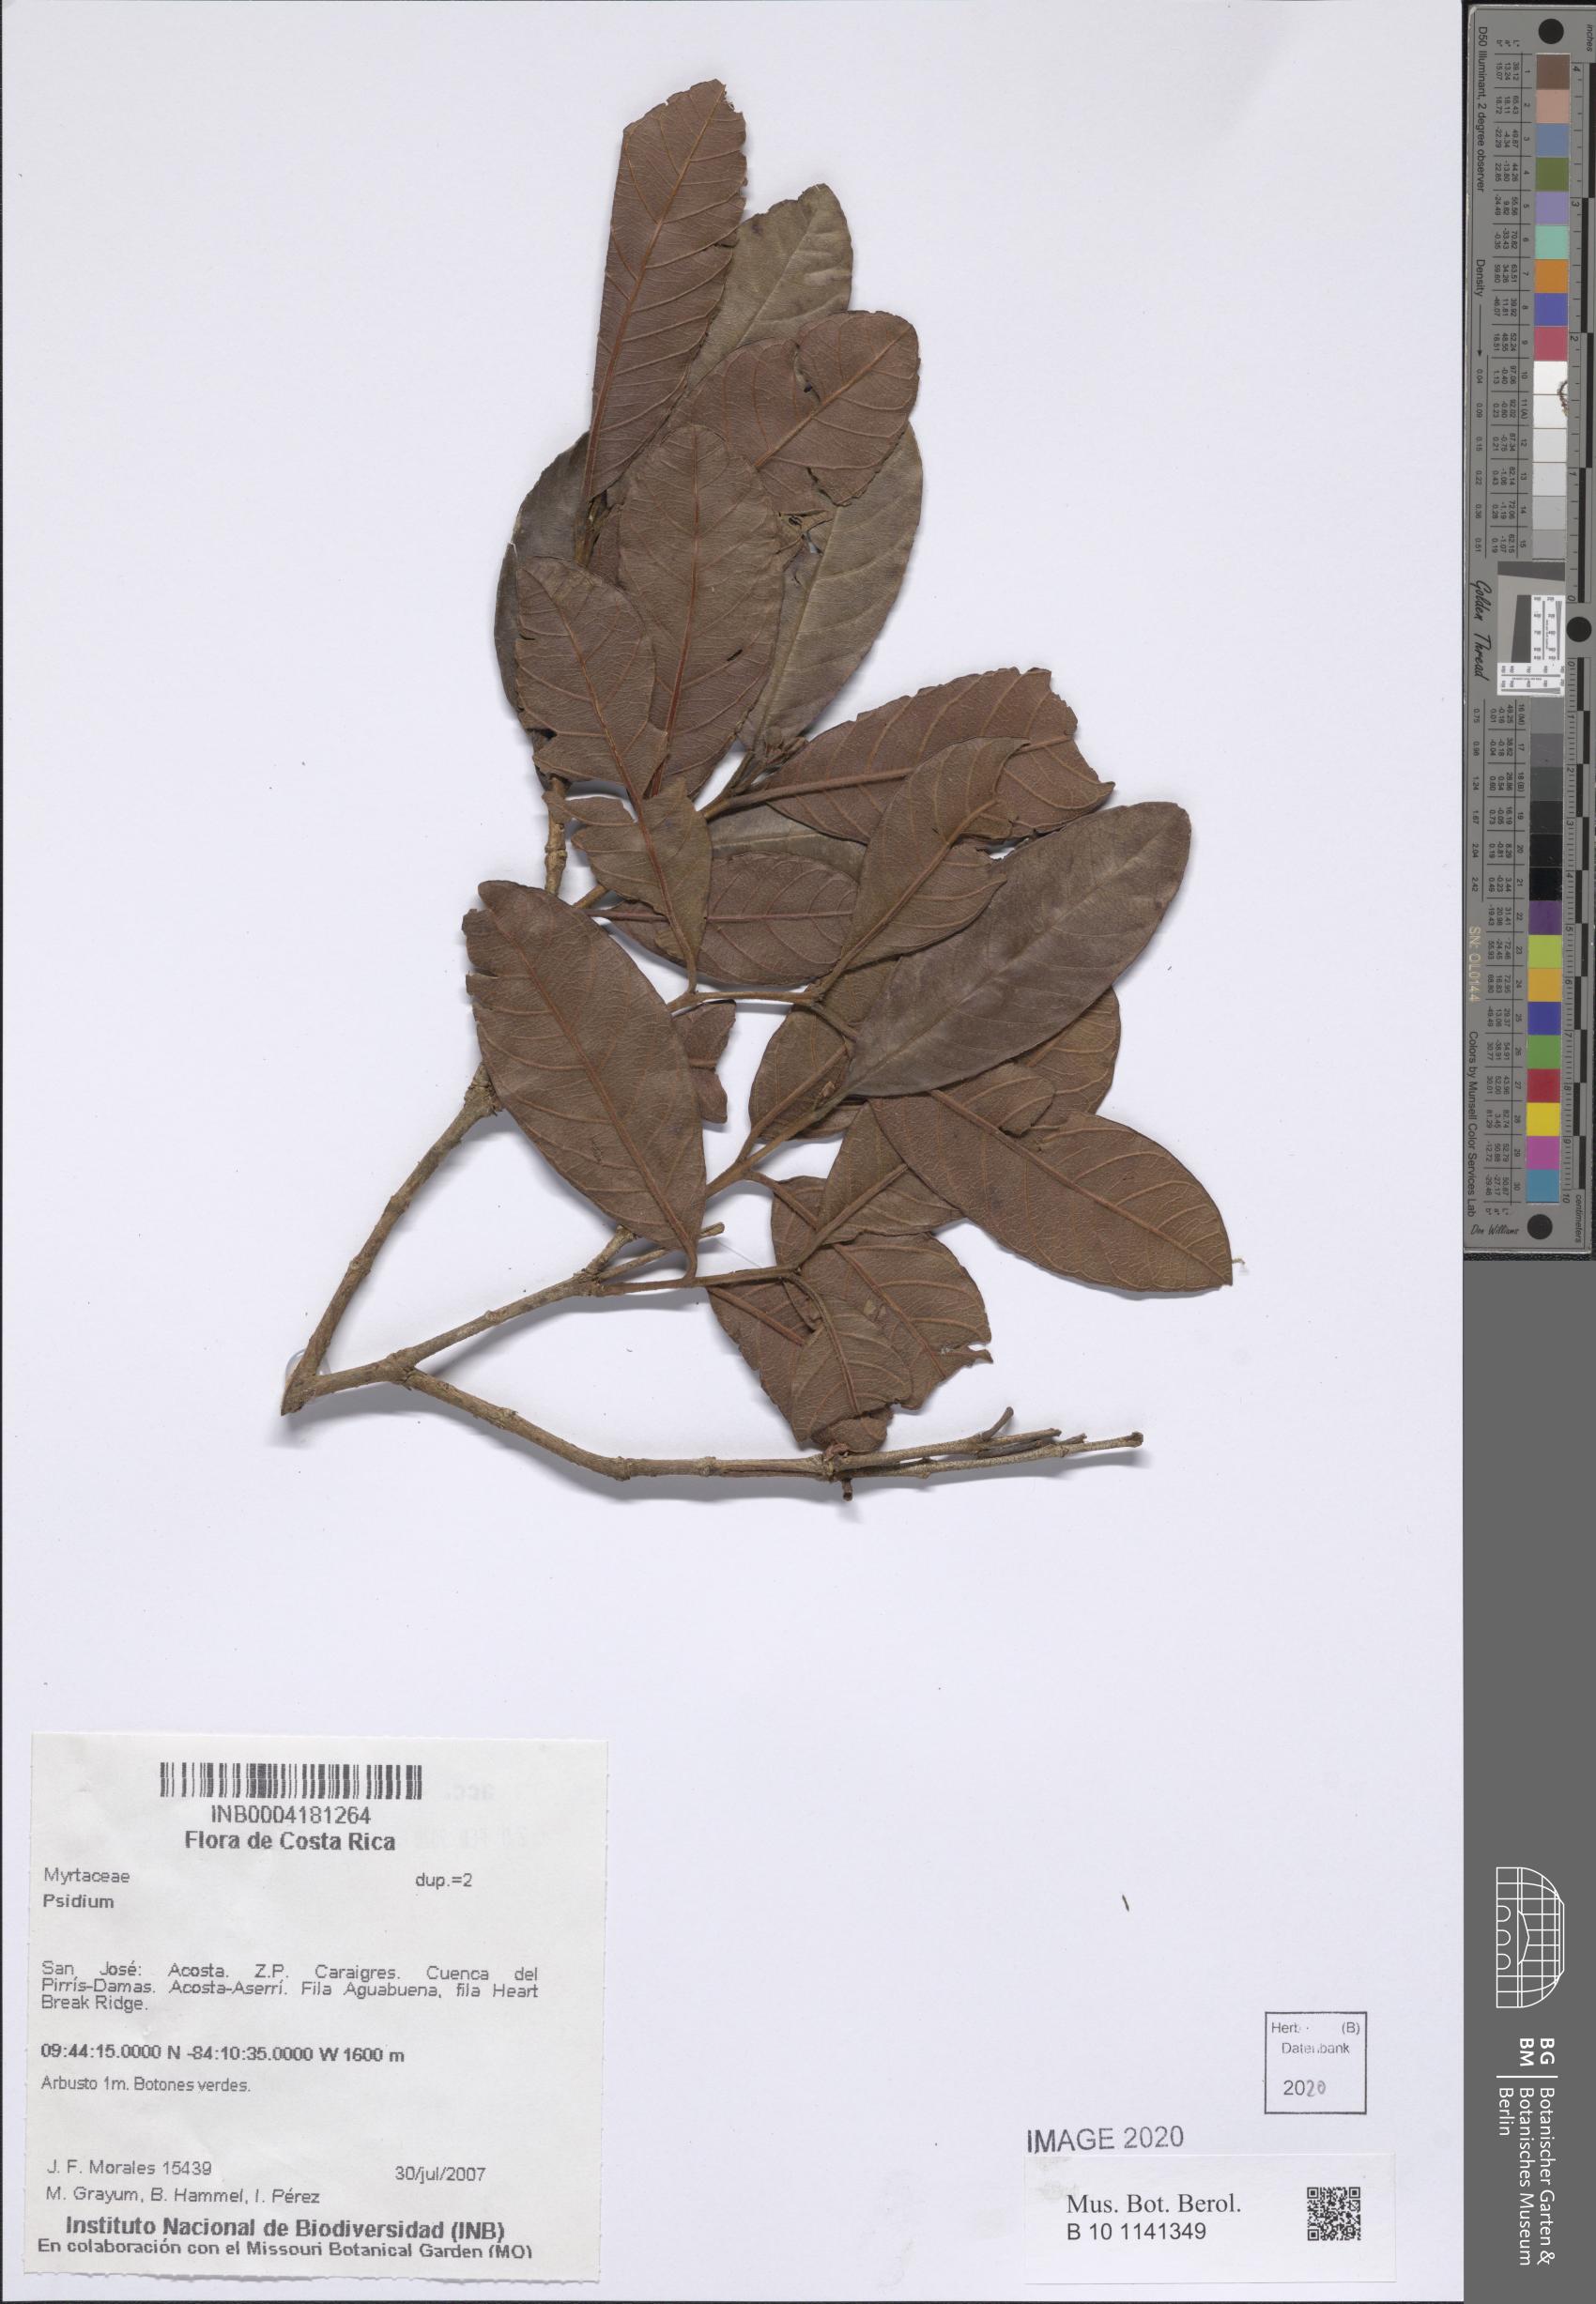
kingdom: Plantae
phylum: Tracheophyta
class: Magnoliopsida
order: Myrtales
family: Myrtaceae
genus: Psidium
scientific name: Psidium
